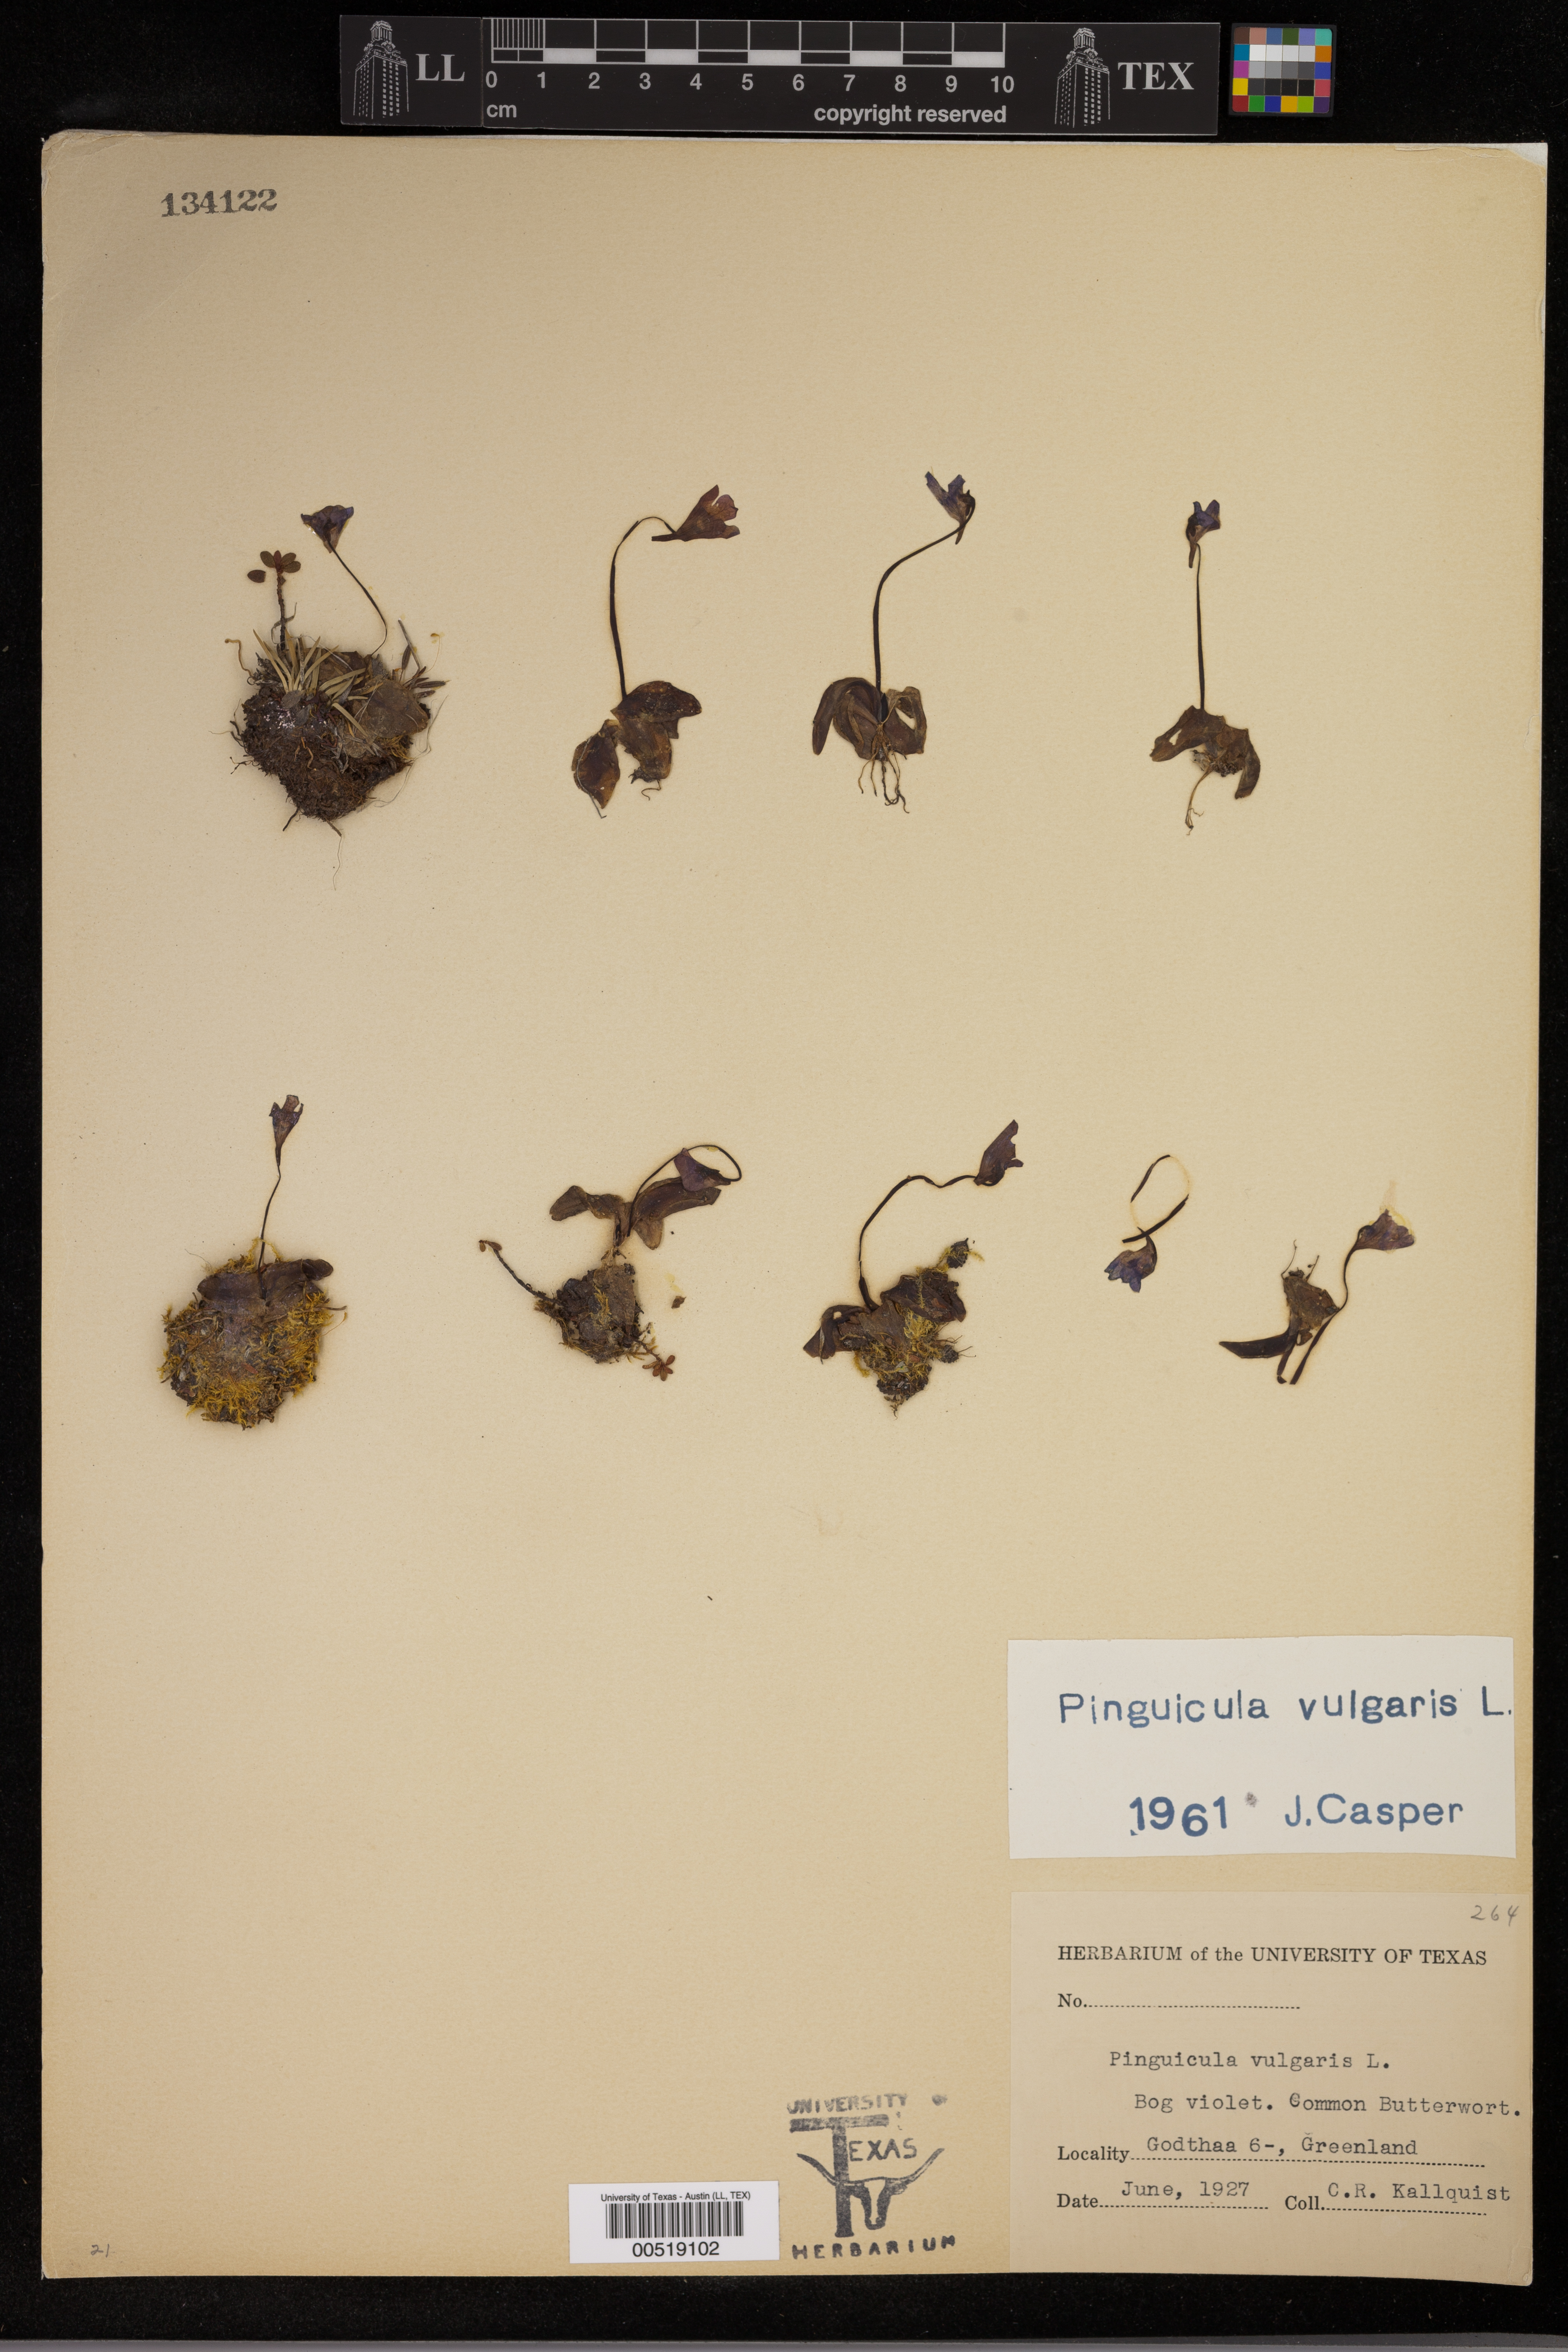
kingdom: Plantae
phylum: Tracheophyta
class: Magnoliopsida
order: Lamiales
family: Lentibulariaceae
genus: Pinguicula
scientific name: Pinguicula vulgaris
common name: Common butterwort
